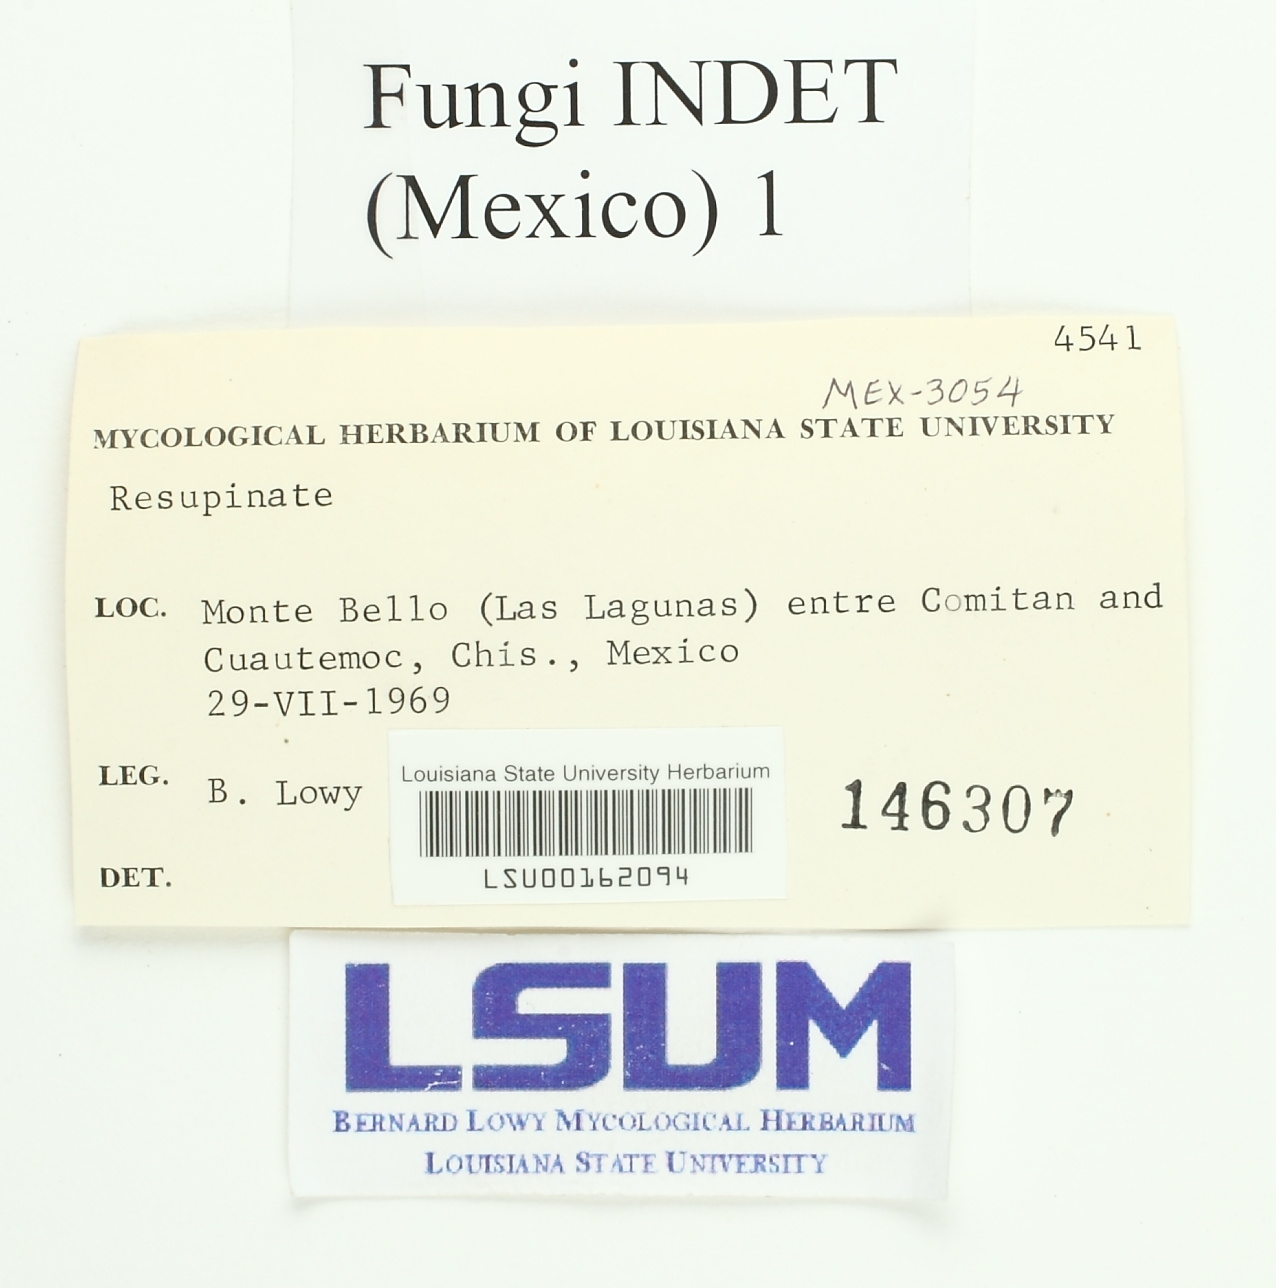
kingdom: Fungi
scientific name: Fungi
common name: Fungi
